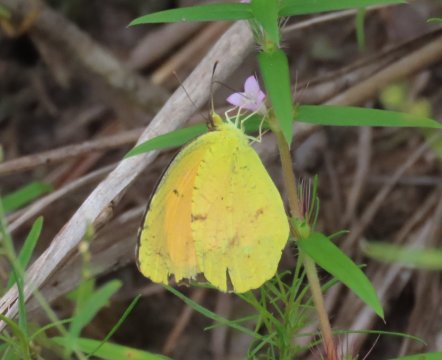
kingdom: Animalia
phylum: Arthropoda
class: Insecta
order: Lepidoptera
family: Pieridae
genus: Abaeis
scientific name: Abaeis nicippe
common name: Sleepy Orange
